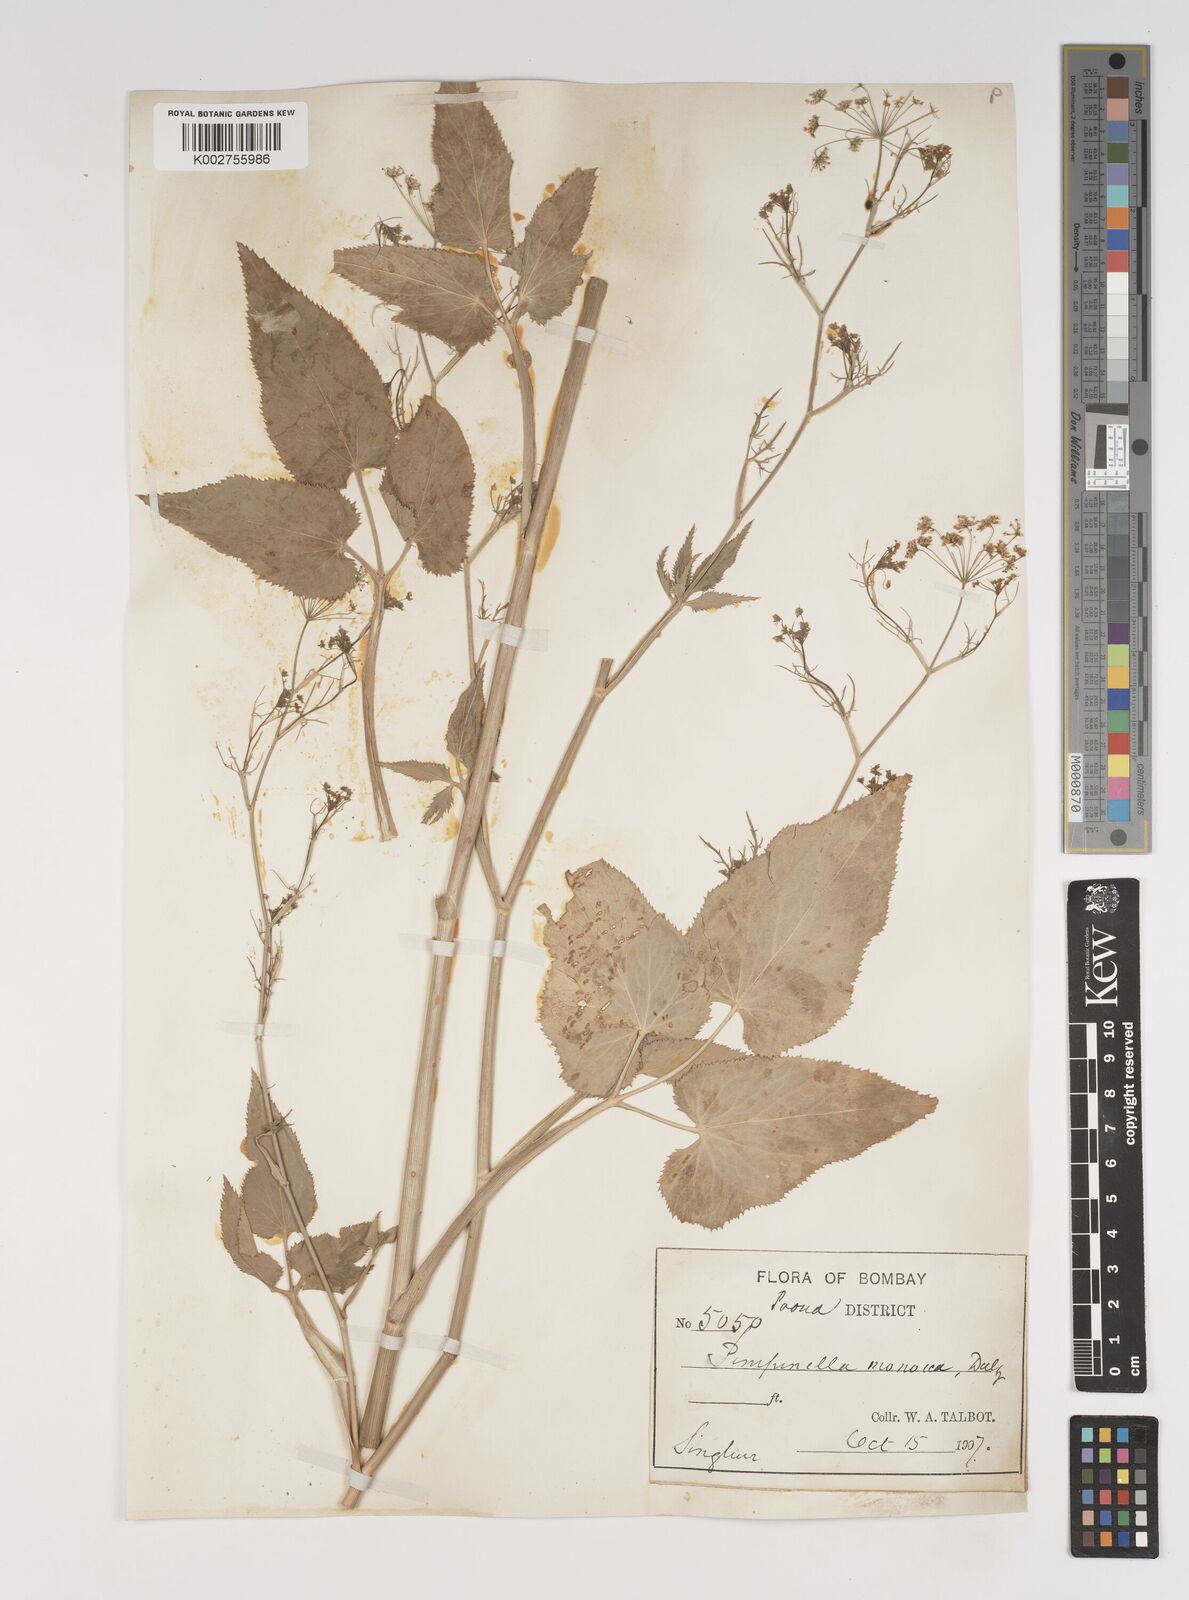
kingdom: Plantae
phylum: Tracheophyta
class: Magnoliopsida
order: Apiales
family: Apiaceae
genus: Pimpinella
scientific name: Pimpinella wallichiana
